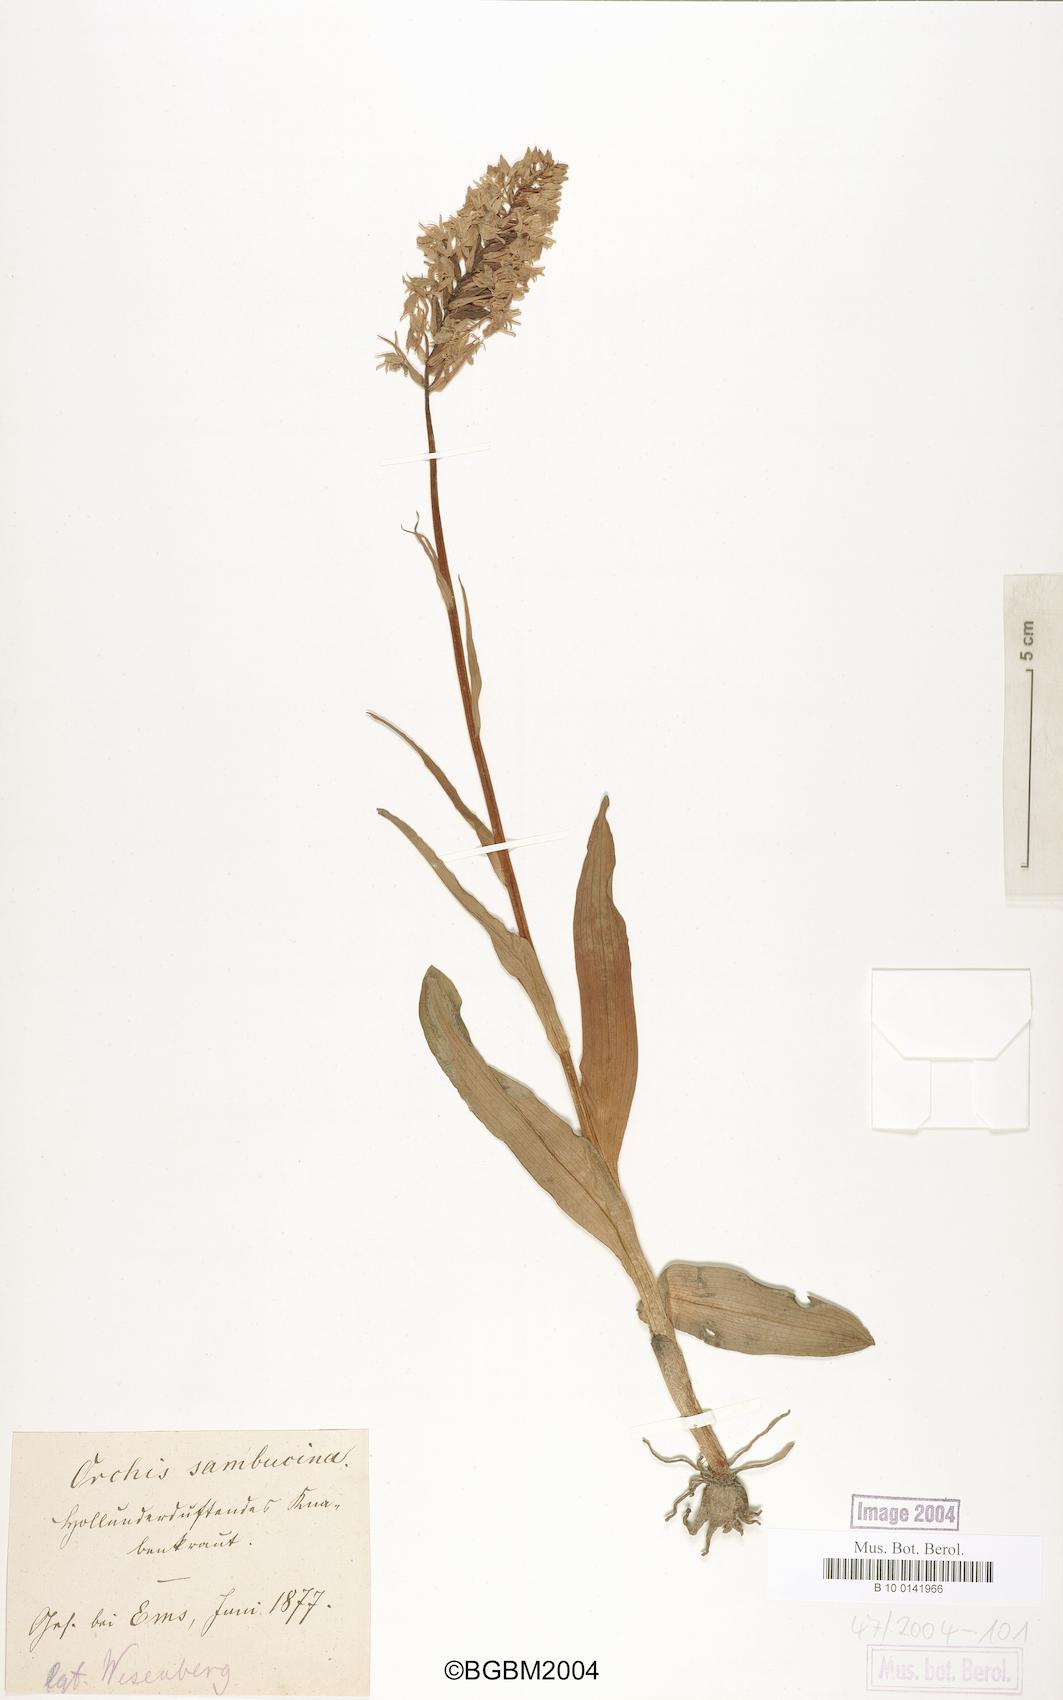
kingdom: Plantae
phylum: Tracheophyta
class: Liliopsida
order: Asparagales
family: Orchidaceae
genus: Dactylorhiza
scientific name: Dactylorhiza sambucina
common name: Elder-flowered orchid
